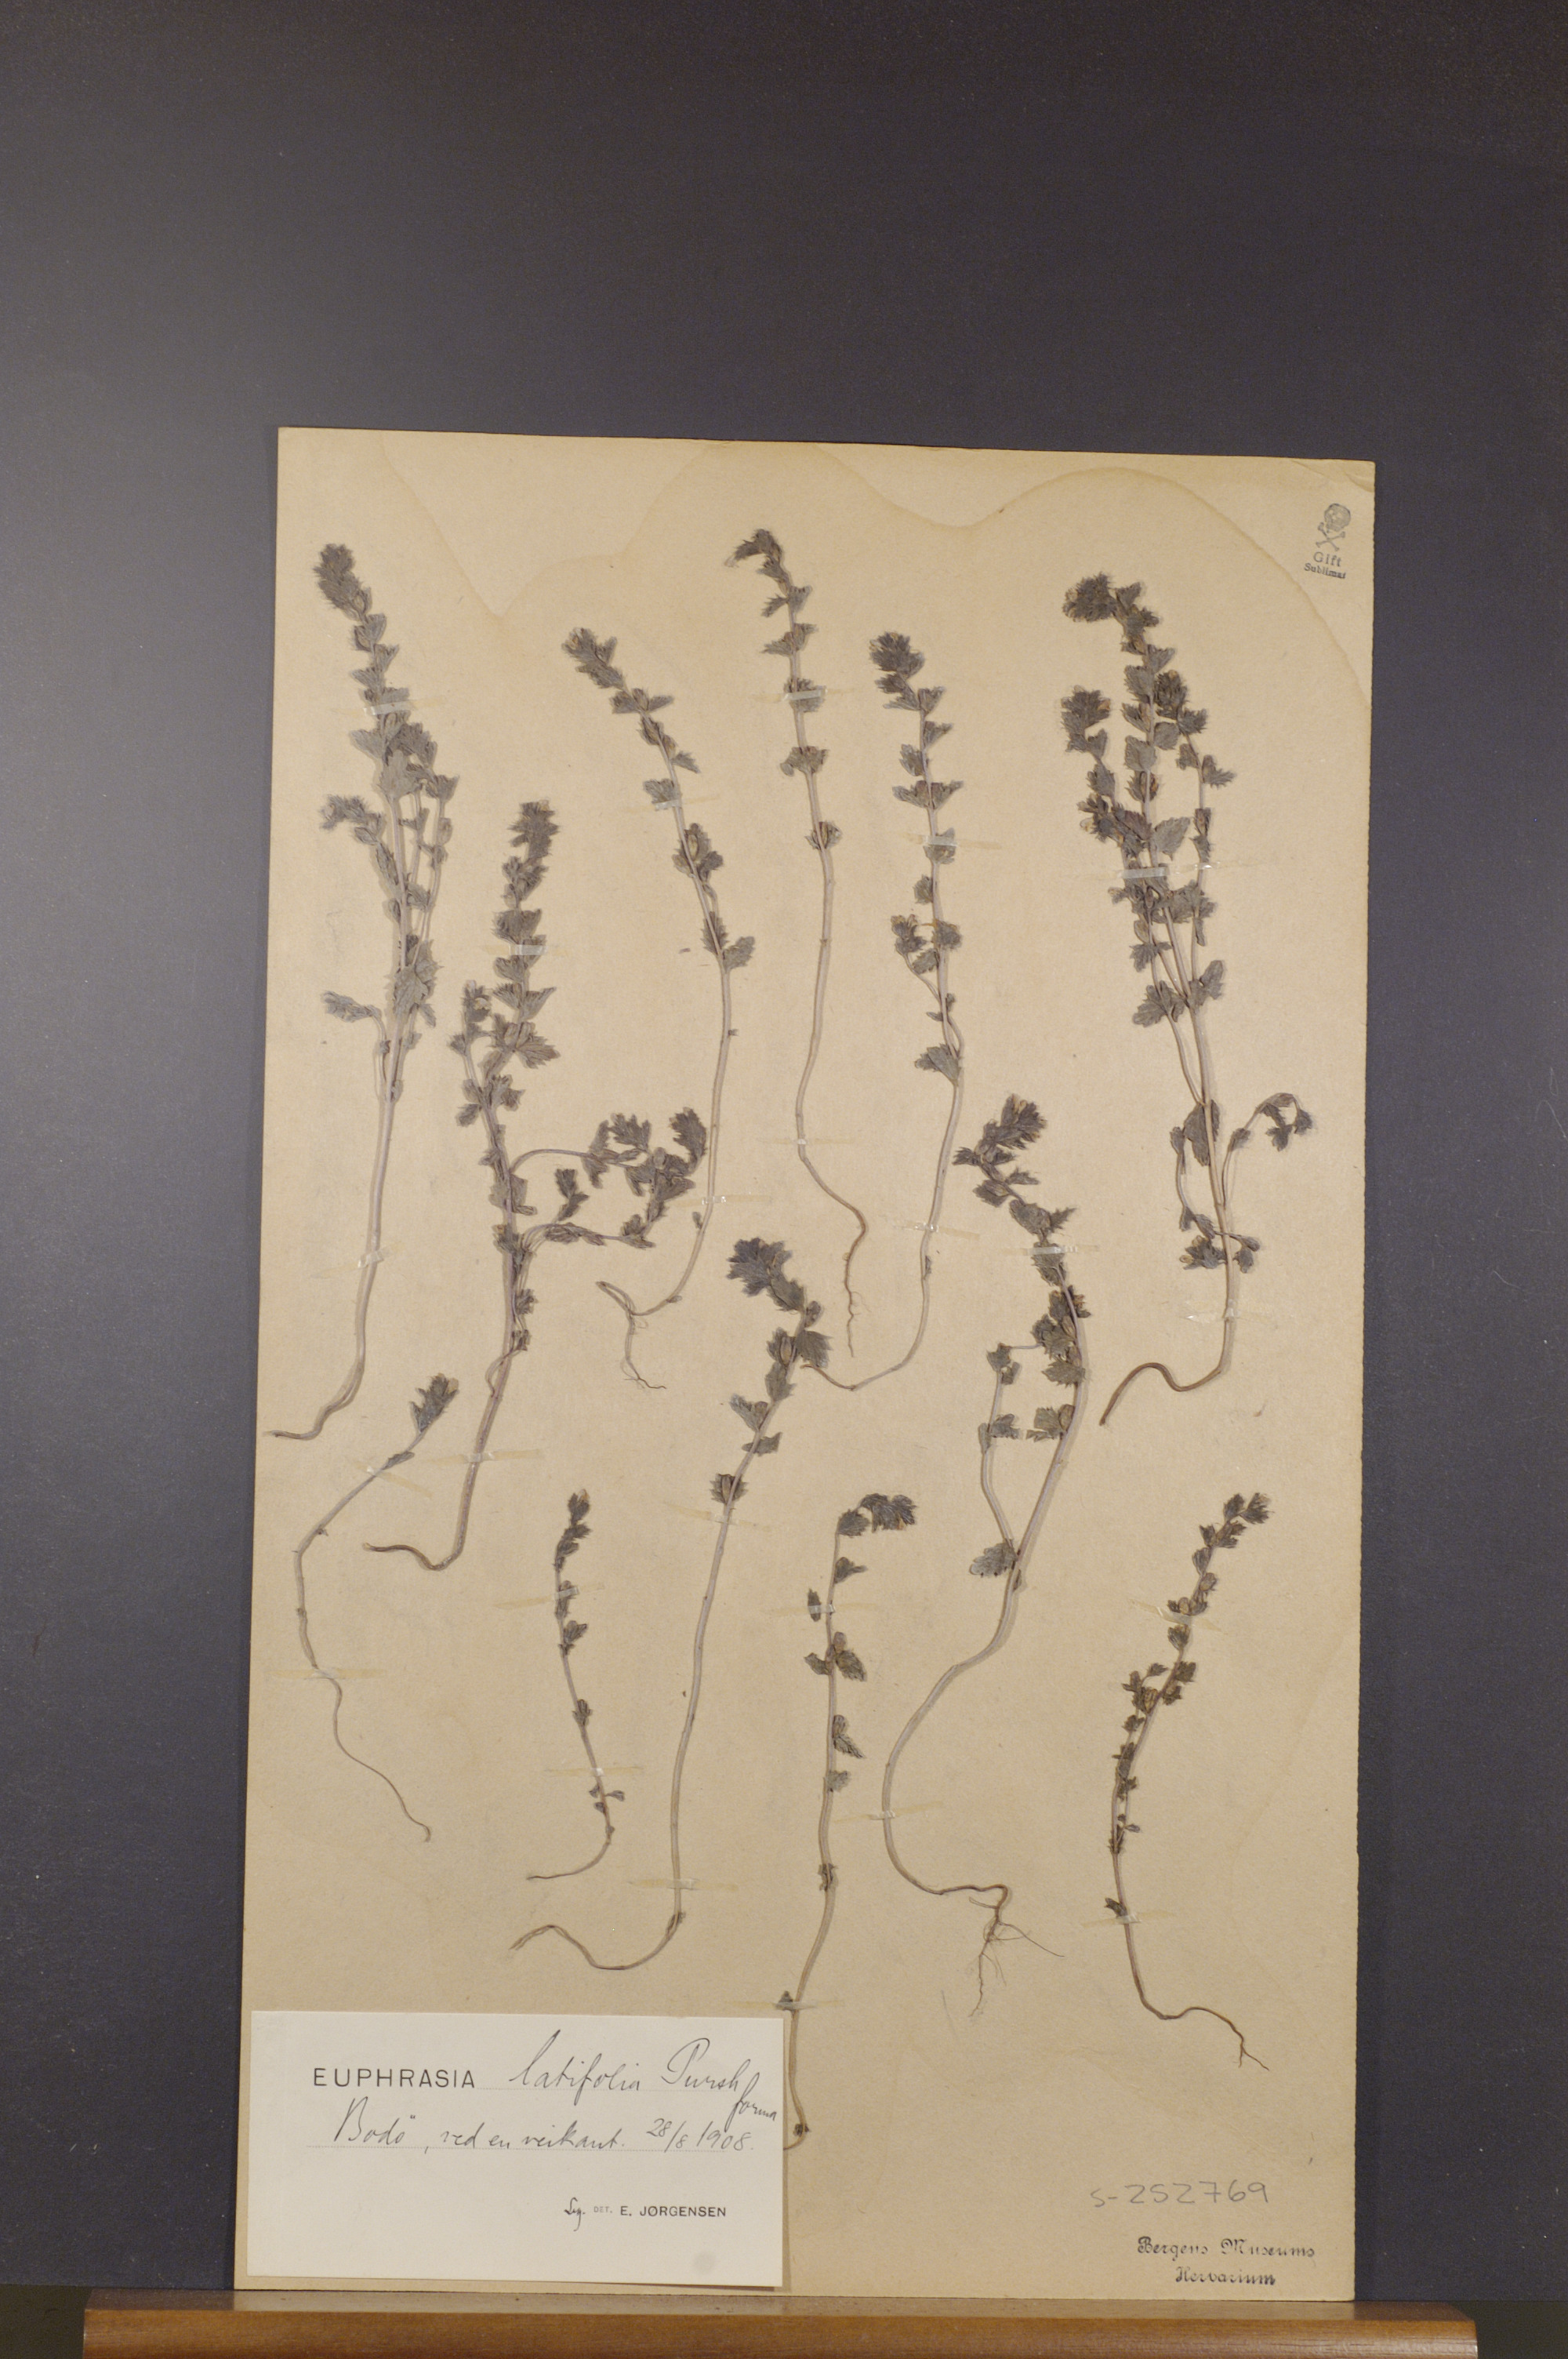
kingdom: Plantae
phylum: Tracheophyta
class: Magnoliopsida
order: Lamiales
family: Orobanchaceae
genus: Euphrasia
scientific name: Euphrasia wettsteinii
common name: Wettstein's eyebright
